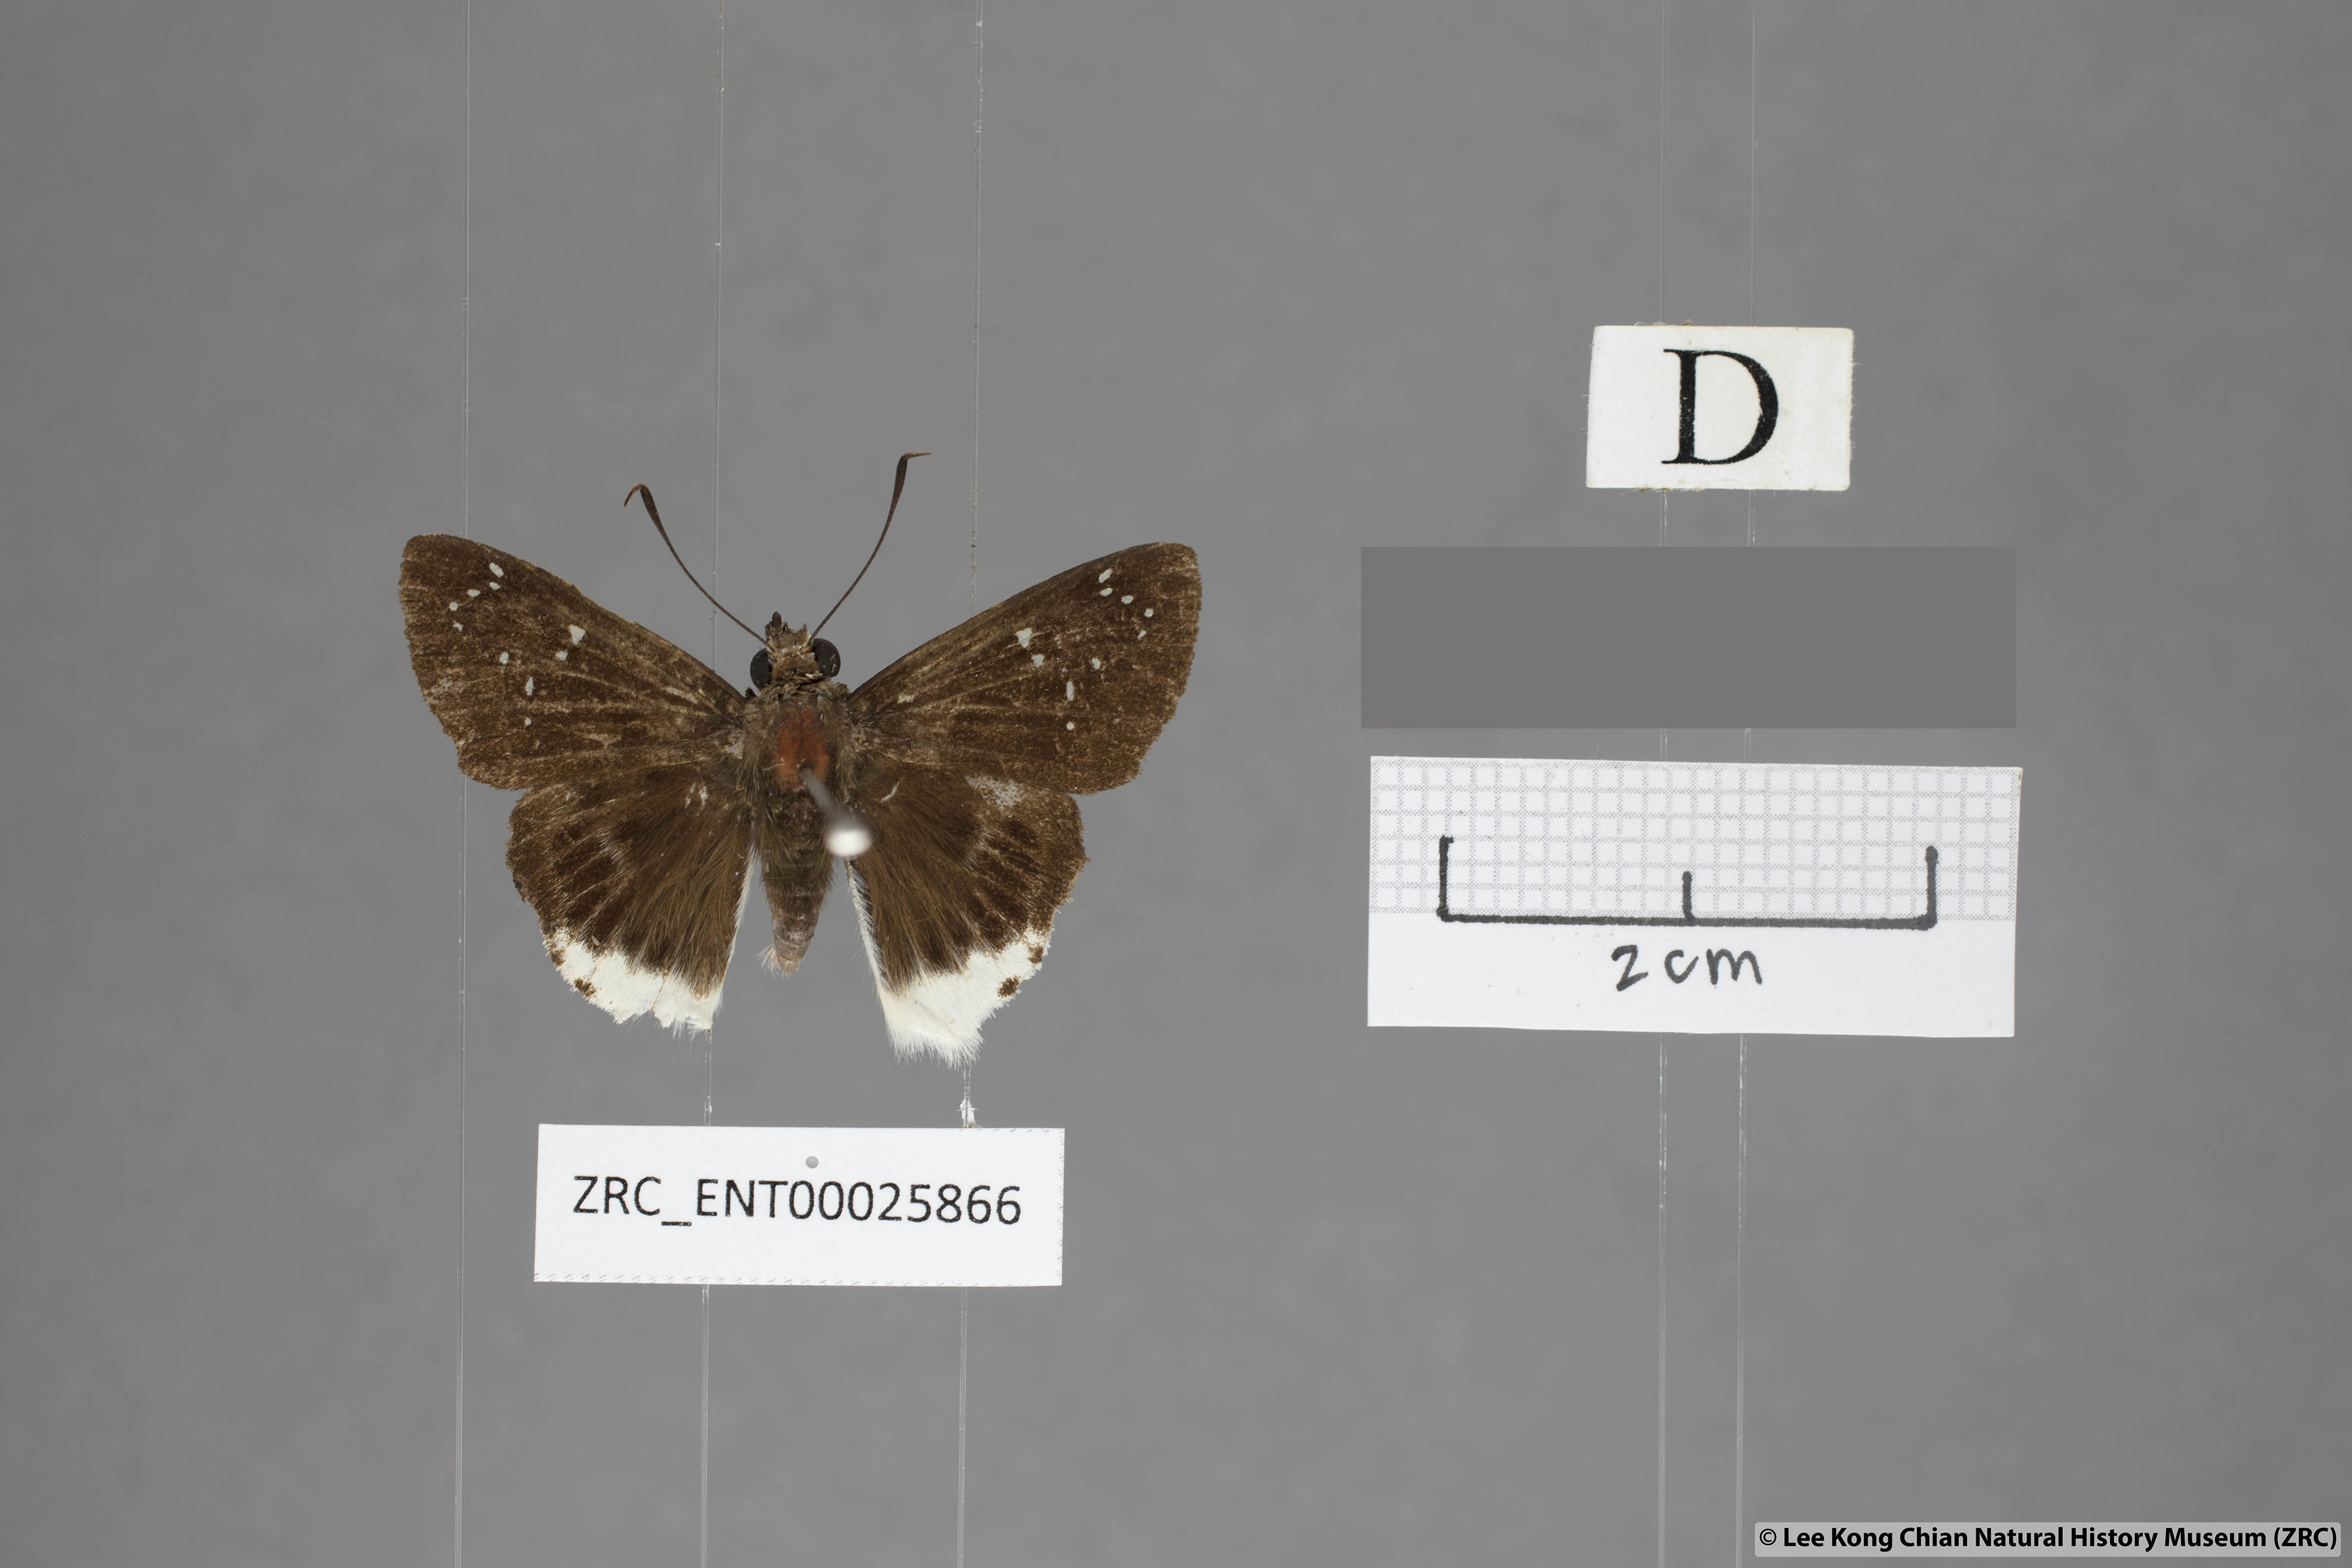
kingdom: Animalia
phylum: Arthropoda
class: Insecta
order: Lepidoptera
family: Hesperiidae
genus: Darpa
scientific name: Darpa striata
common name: Striated angle
